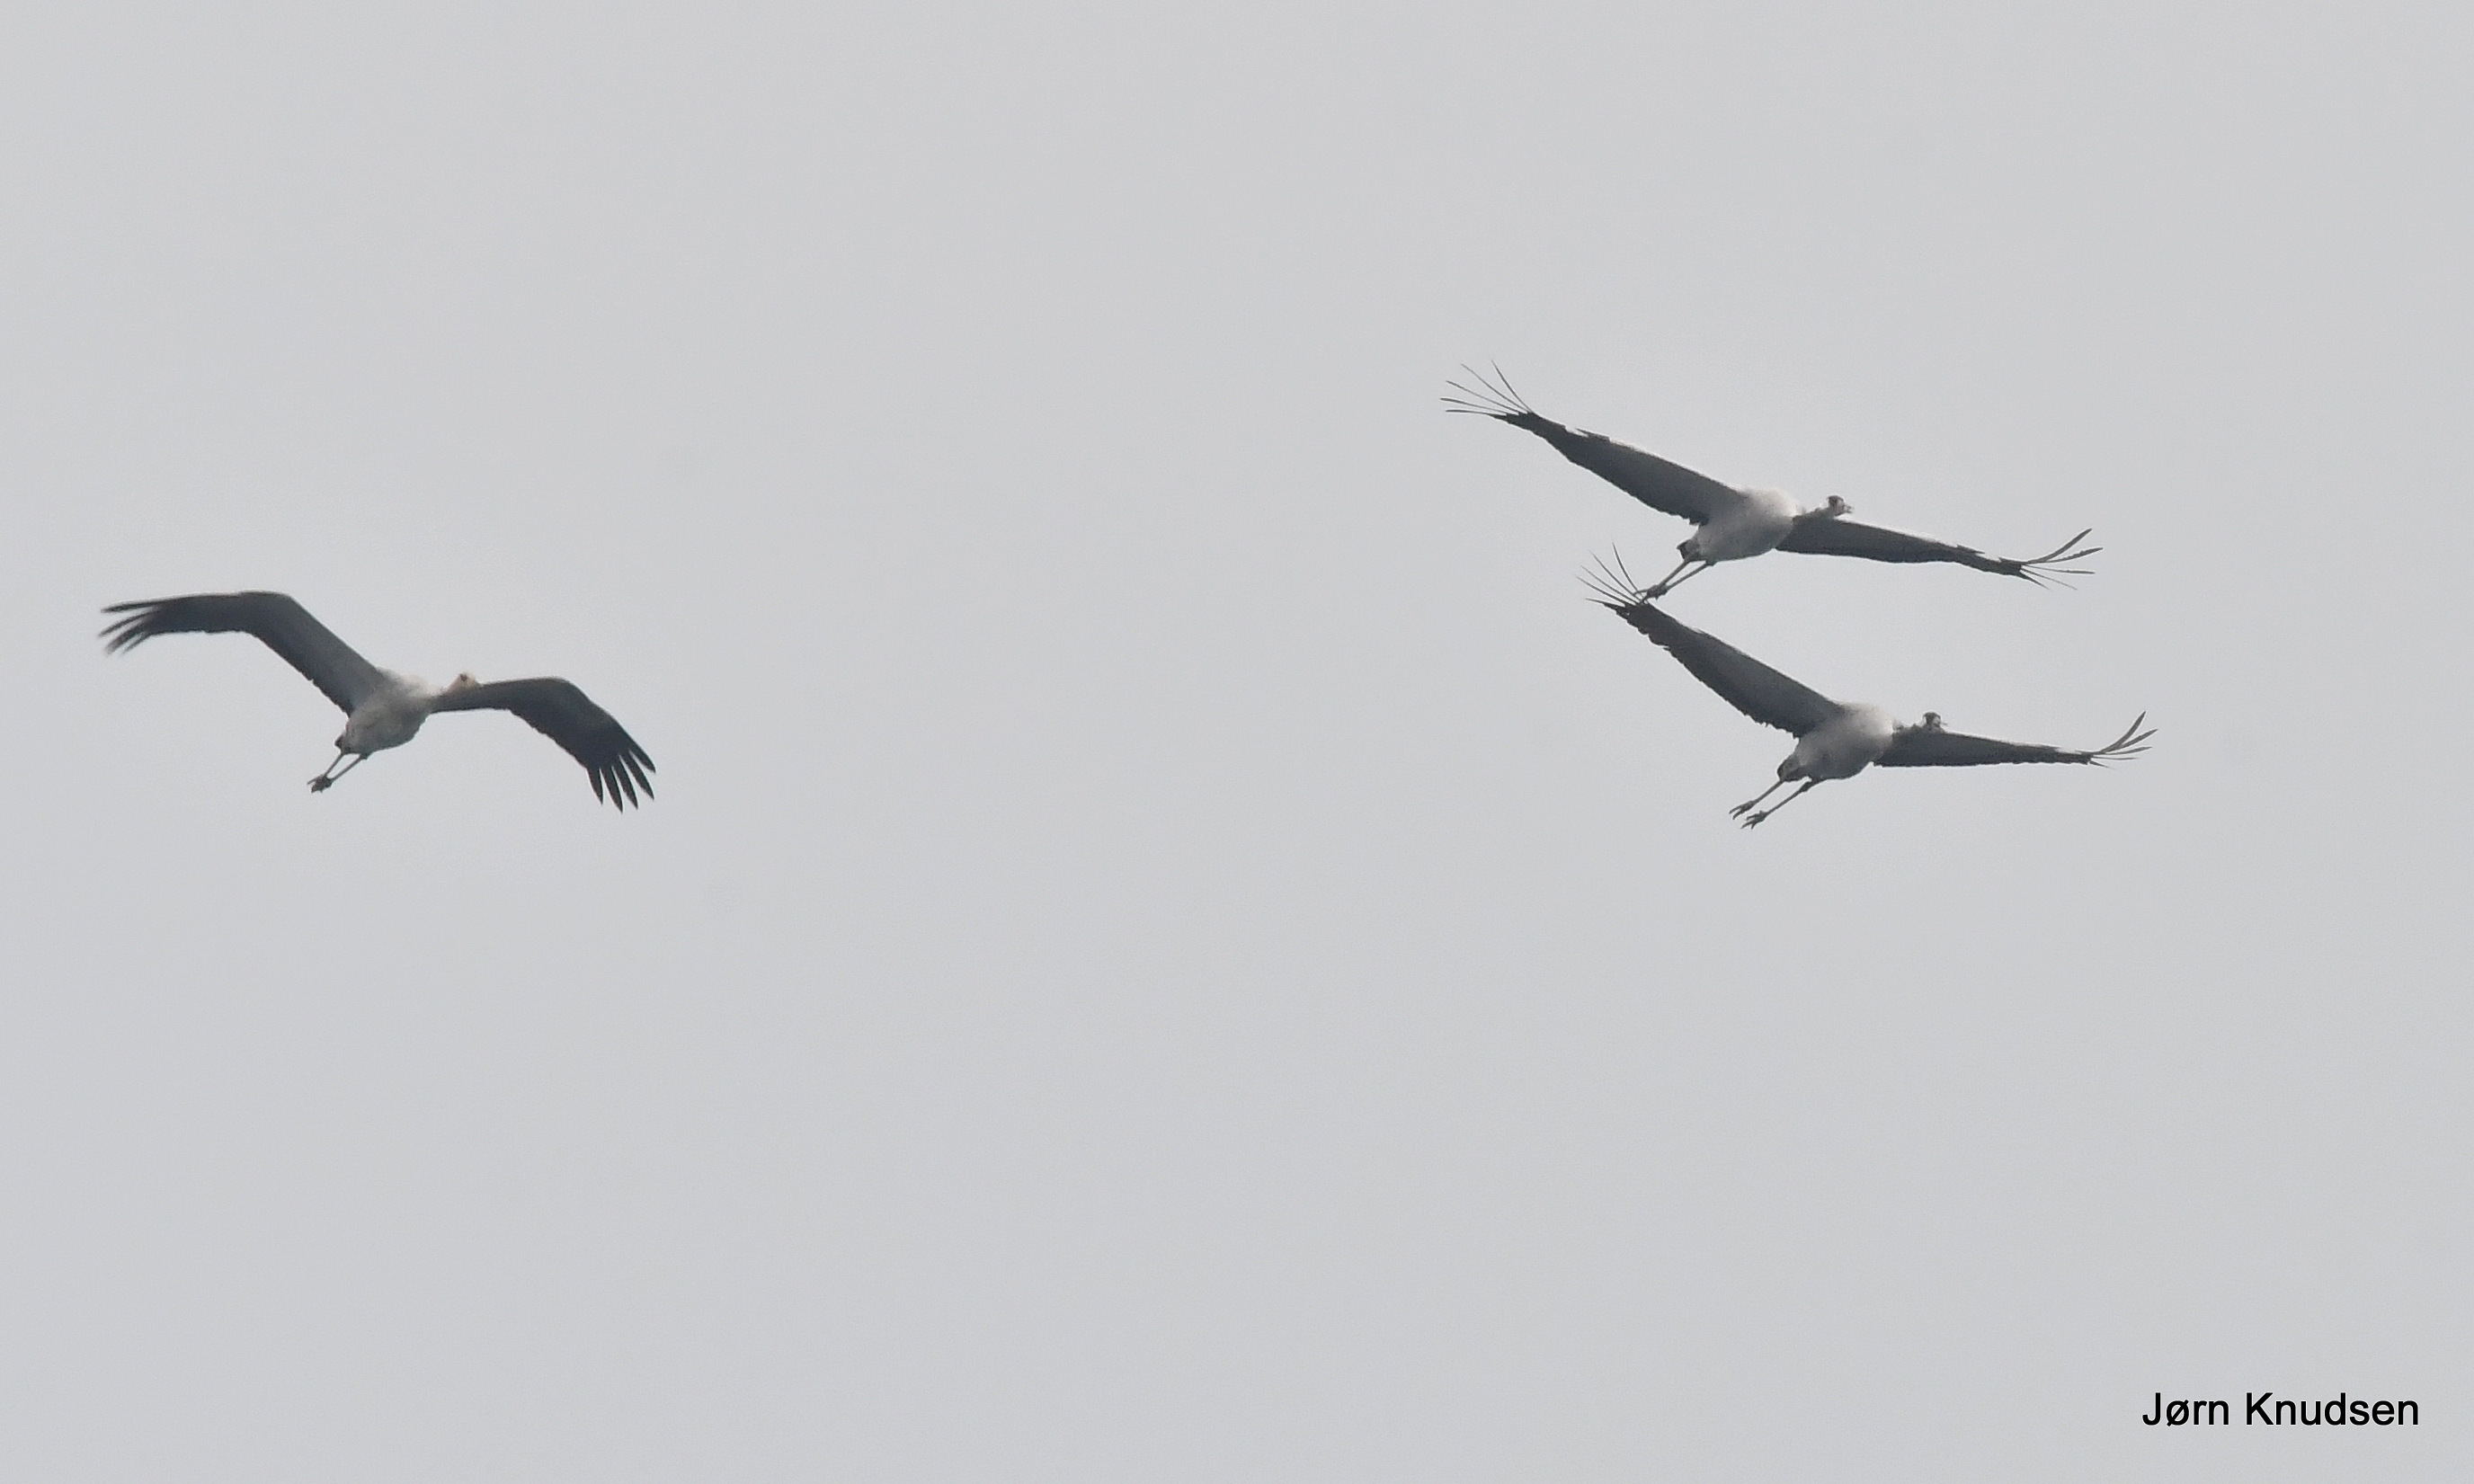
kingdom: Animalia
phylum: Chordata
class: Aves
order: Gruiformes
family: Gruidae
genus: Grus
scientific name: Grus grus
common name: Trane
